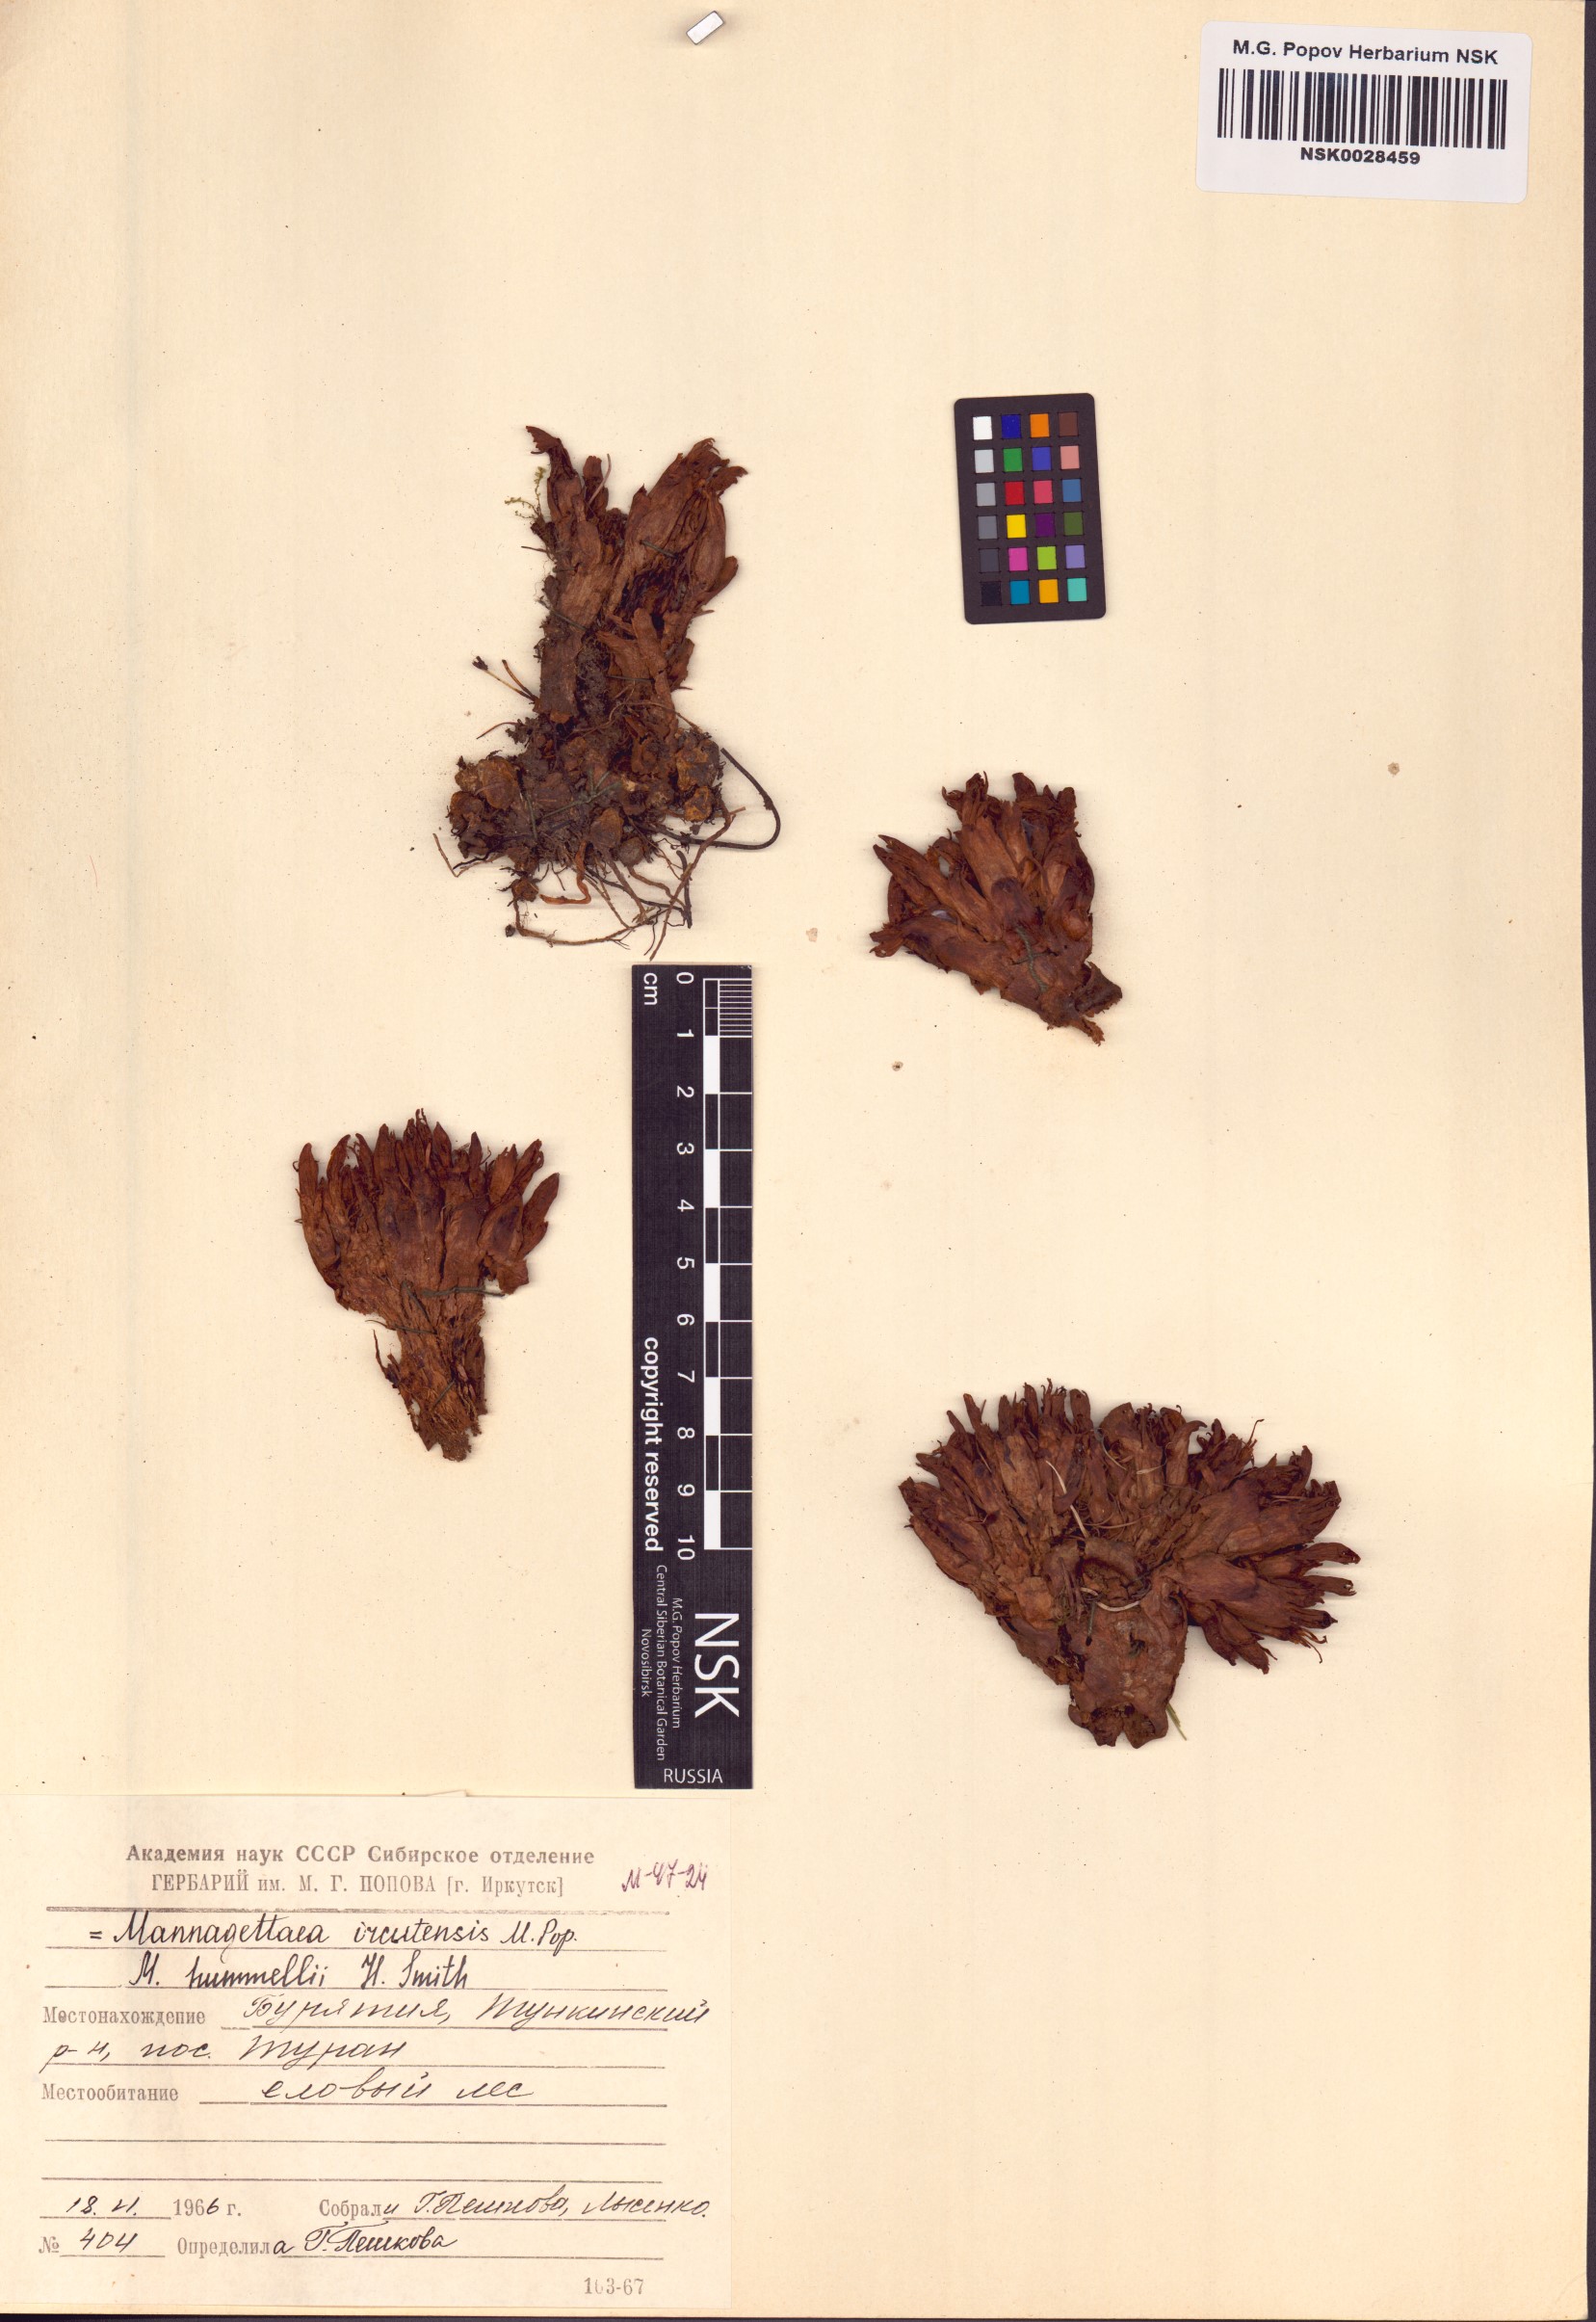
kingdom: Plantae
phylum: Tracheophyta
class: Magnoliopsida
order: Lamiales
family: Orobanchaceae
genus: Mannagettaea
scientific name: Mannagettaea hummelii
